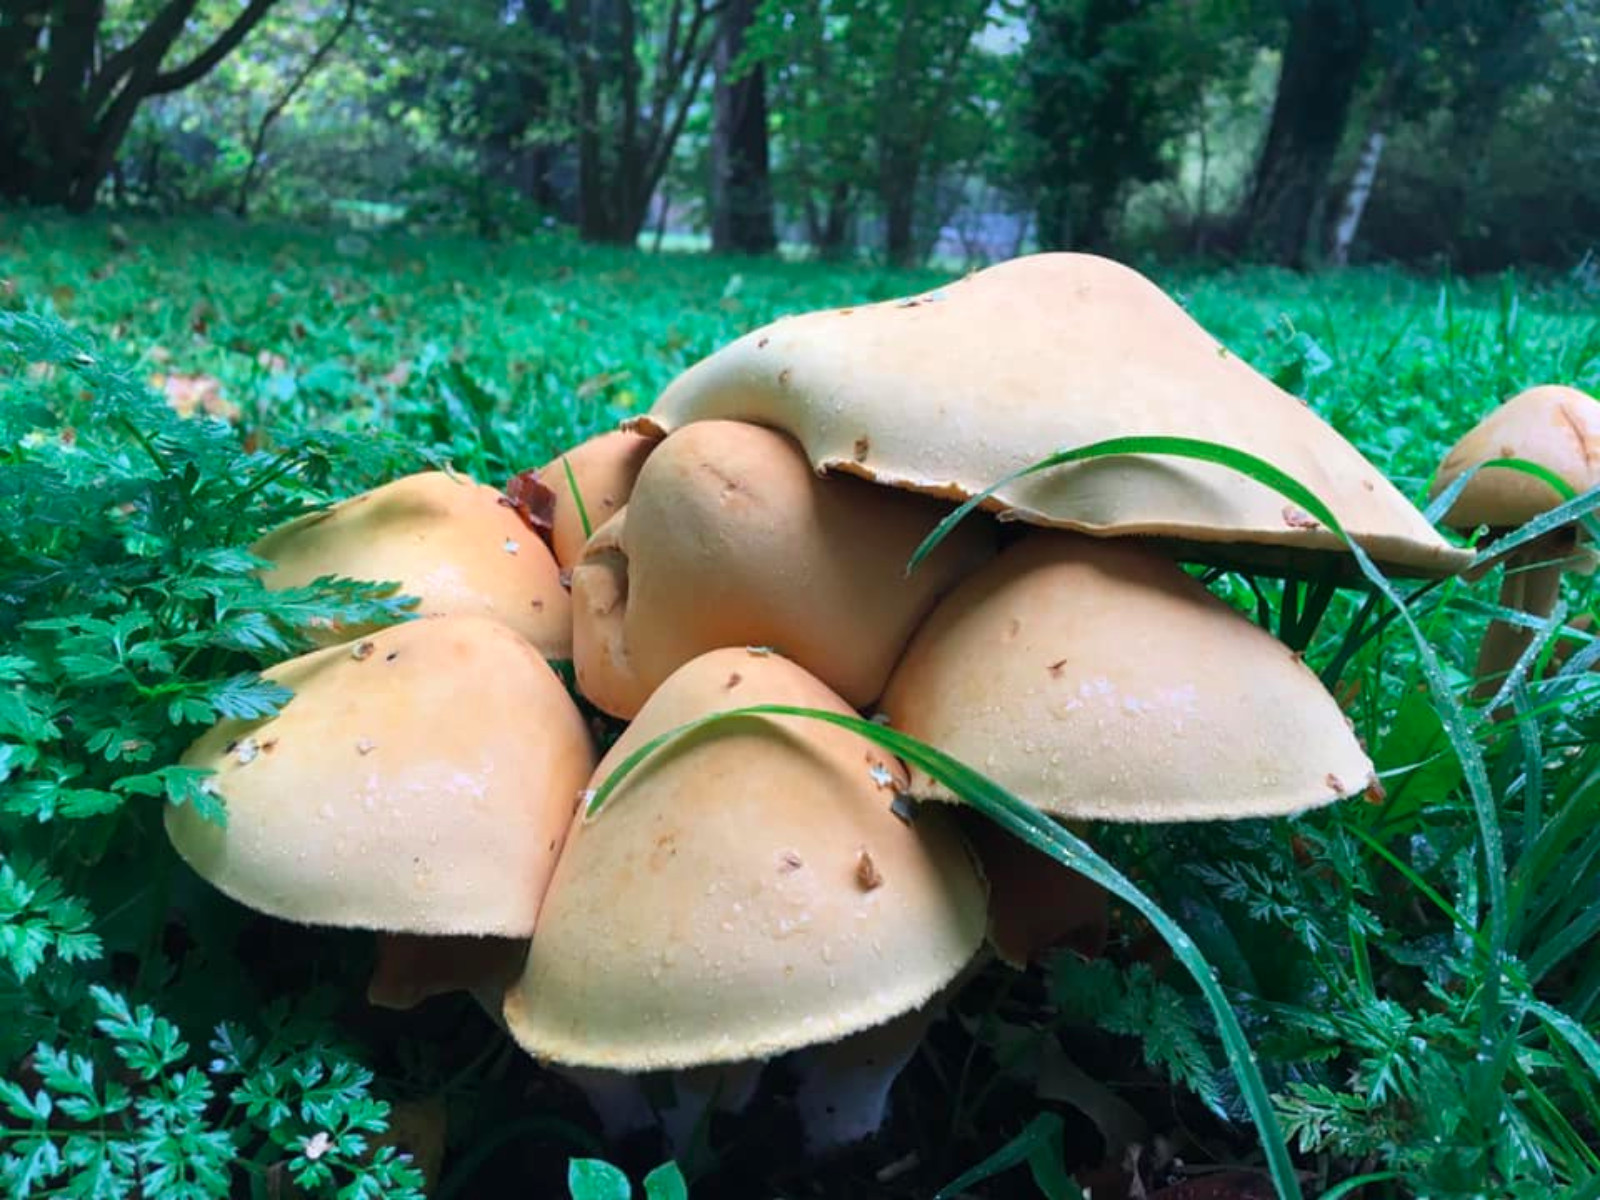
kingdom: Fungi
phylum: Basidiomycota
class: Agaricomycetes
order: Agaricales
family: Tricholomataceae
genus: Phaeolepiota
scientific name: Phaeolepiota aurea
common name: gyldenhat
